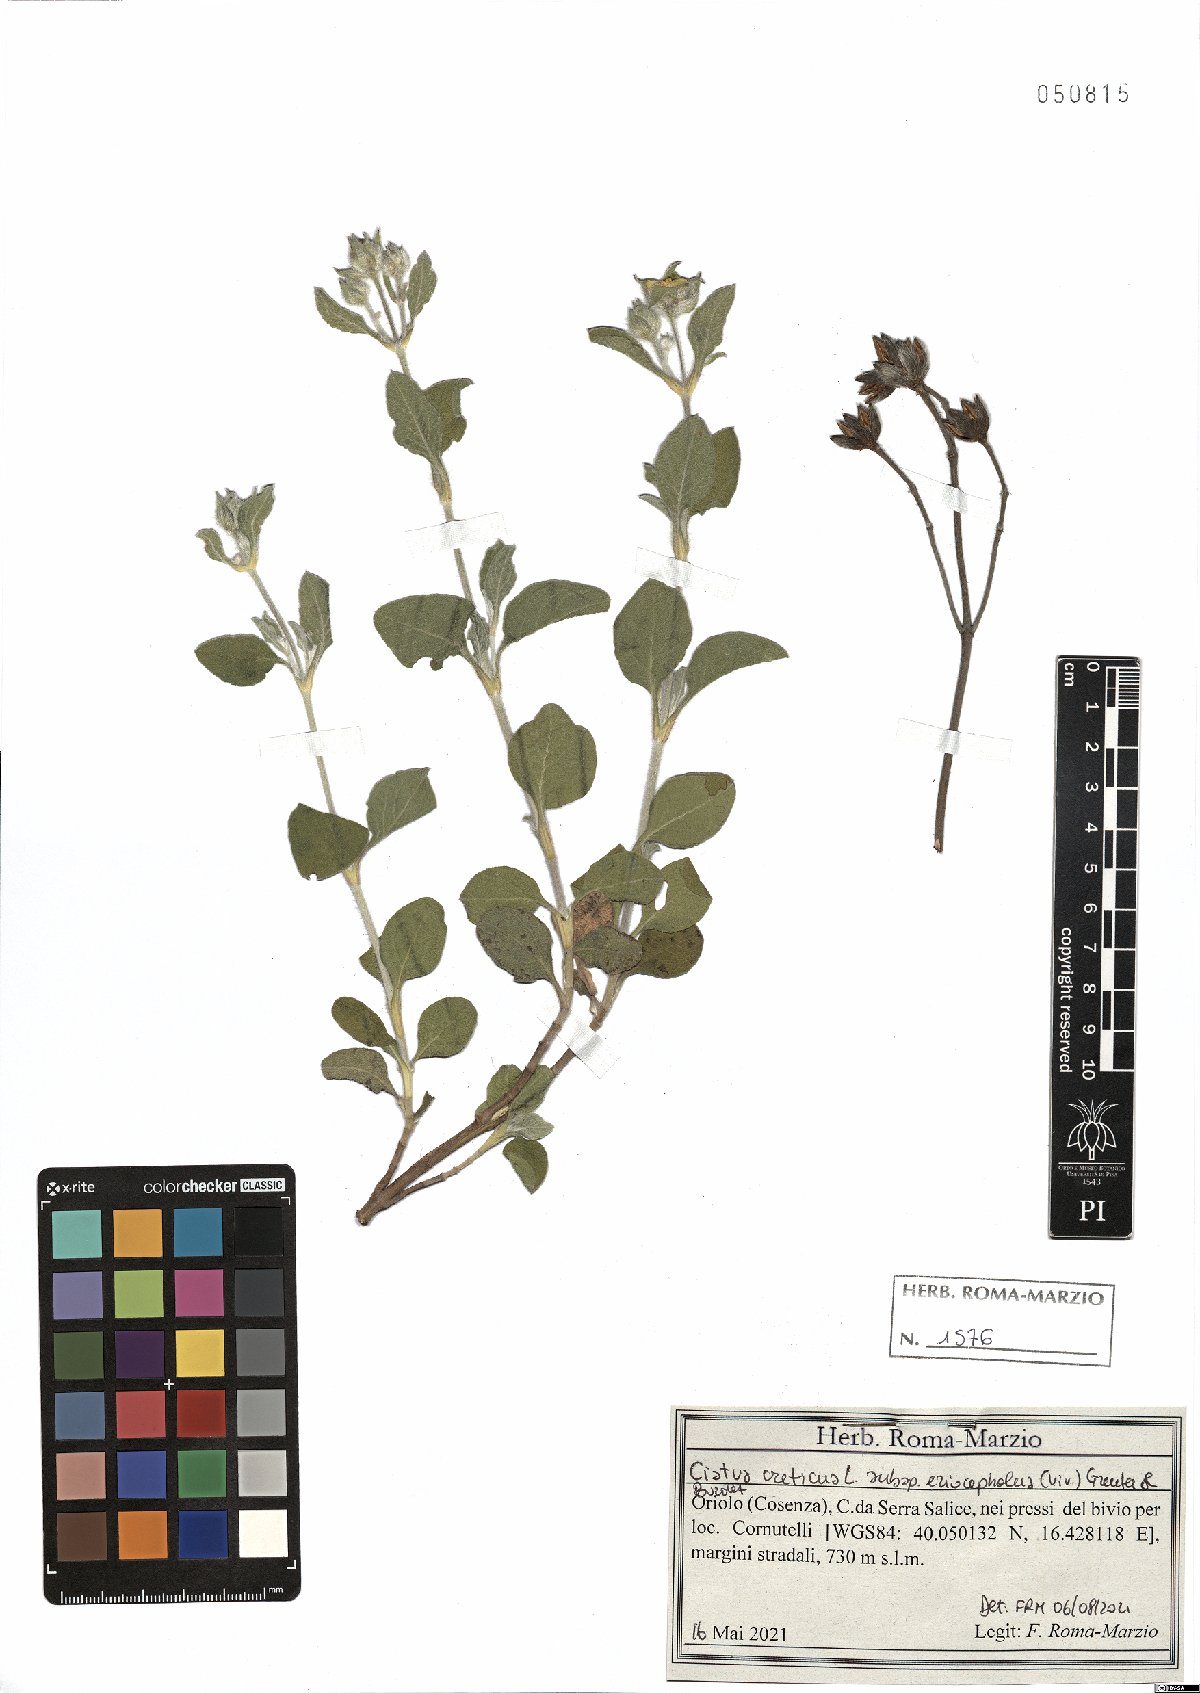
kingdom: Plantae
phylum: Tracheophyta
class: Magnoliopsida
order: Malvales
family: Cistaceae
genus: Cistus
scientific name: Cistus tauricus
